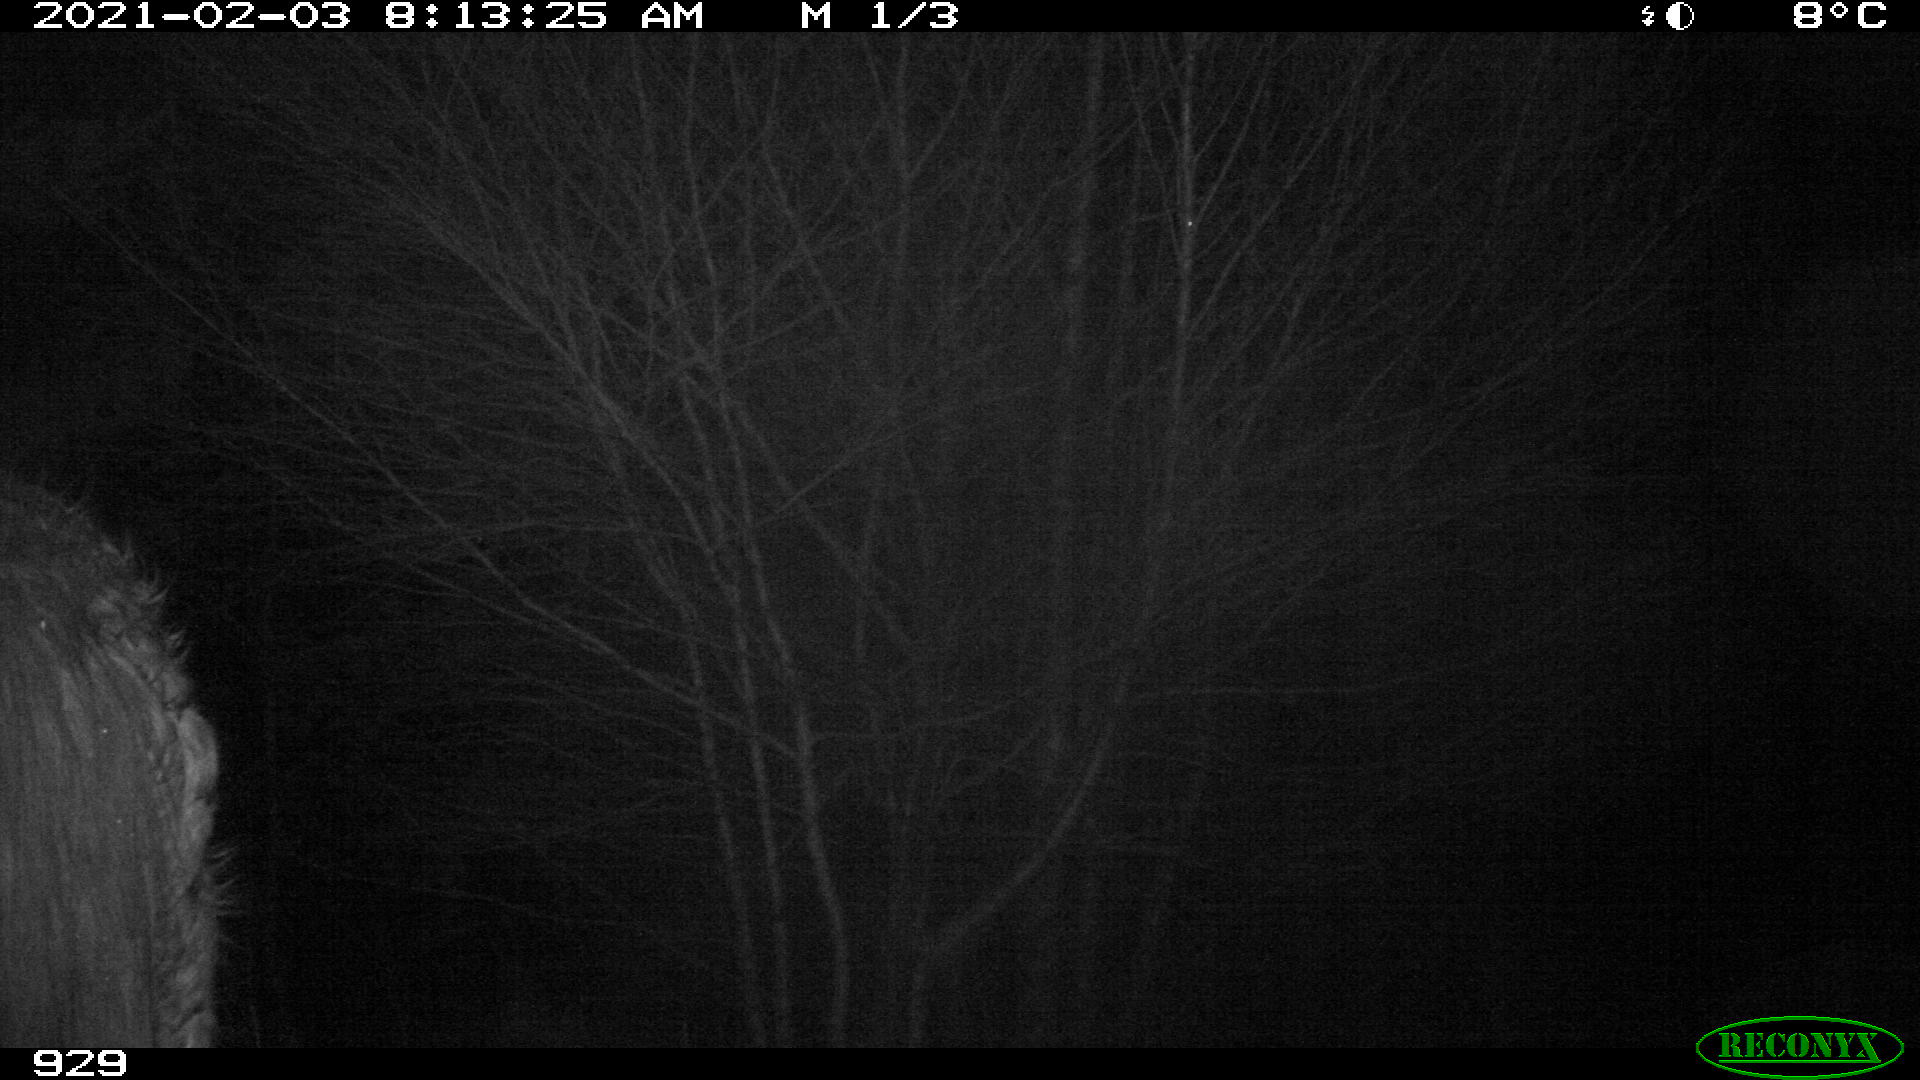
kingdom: Animalia
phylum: Chordata
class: Mammalia
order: Perissodactyla
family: Equidae
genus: Equus
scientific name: Equus caballus
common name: Horse
